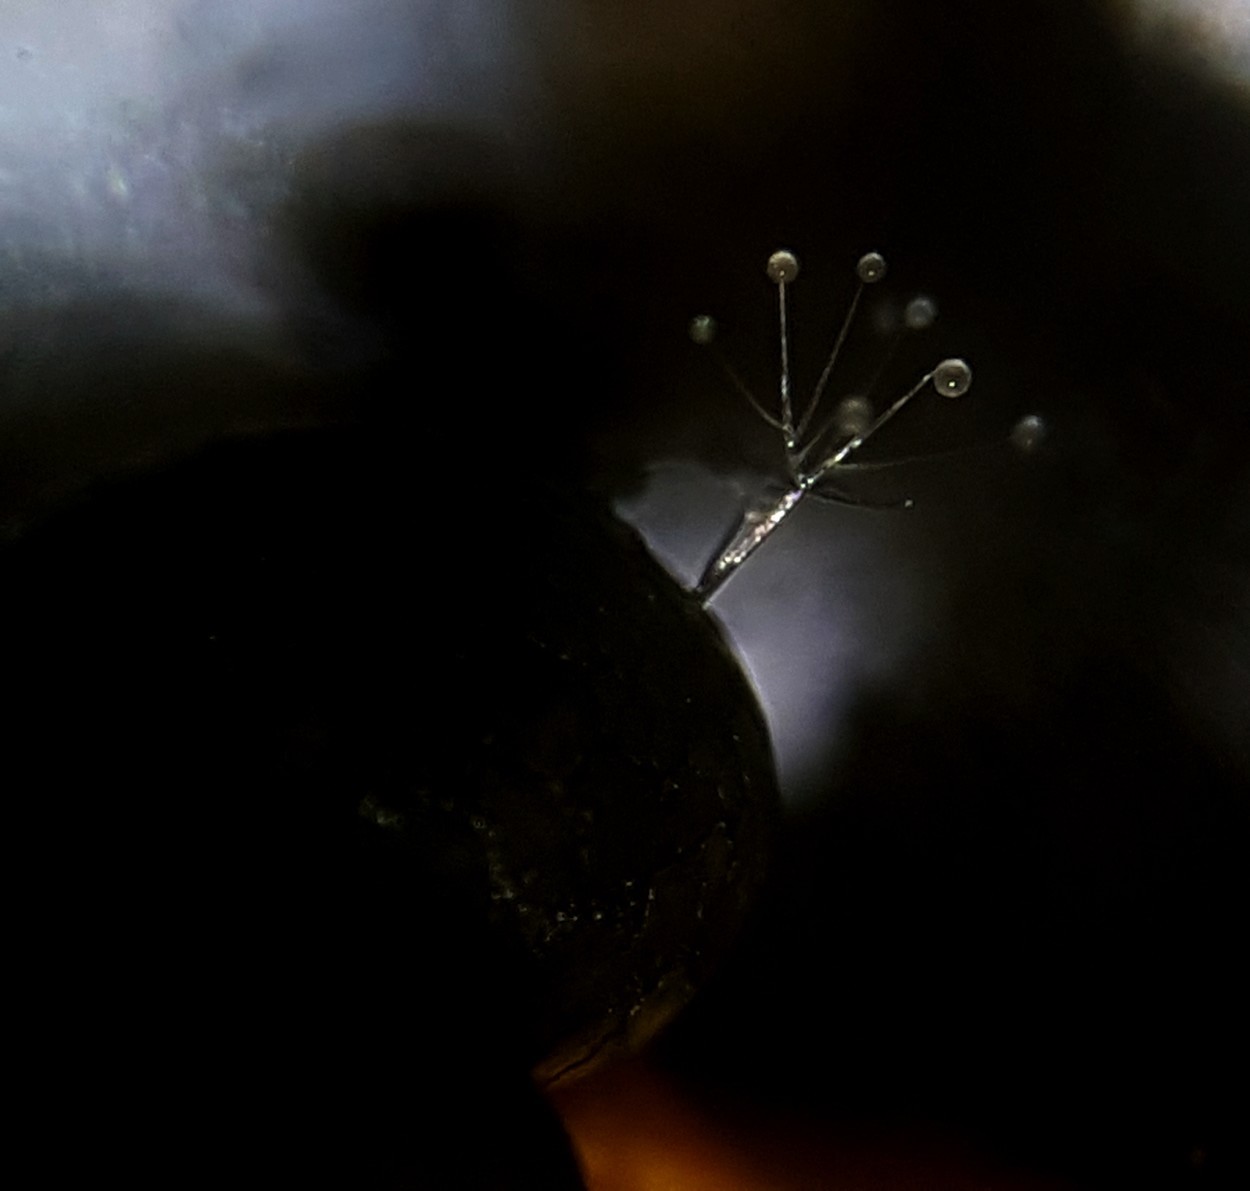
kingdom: Fungi
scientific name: Fungi
